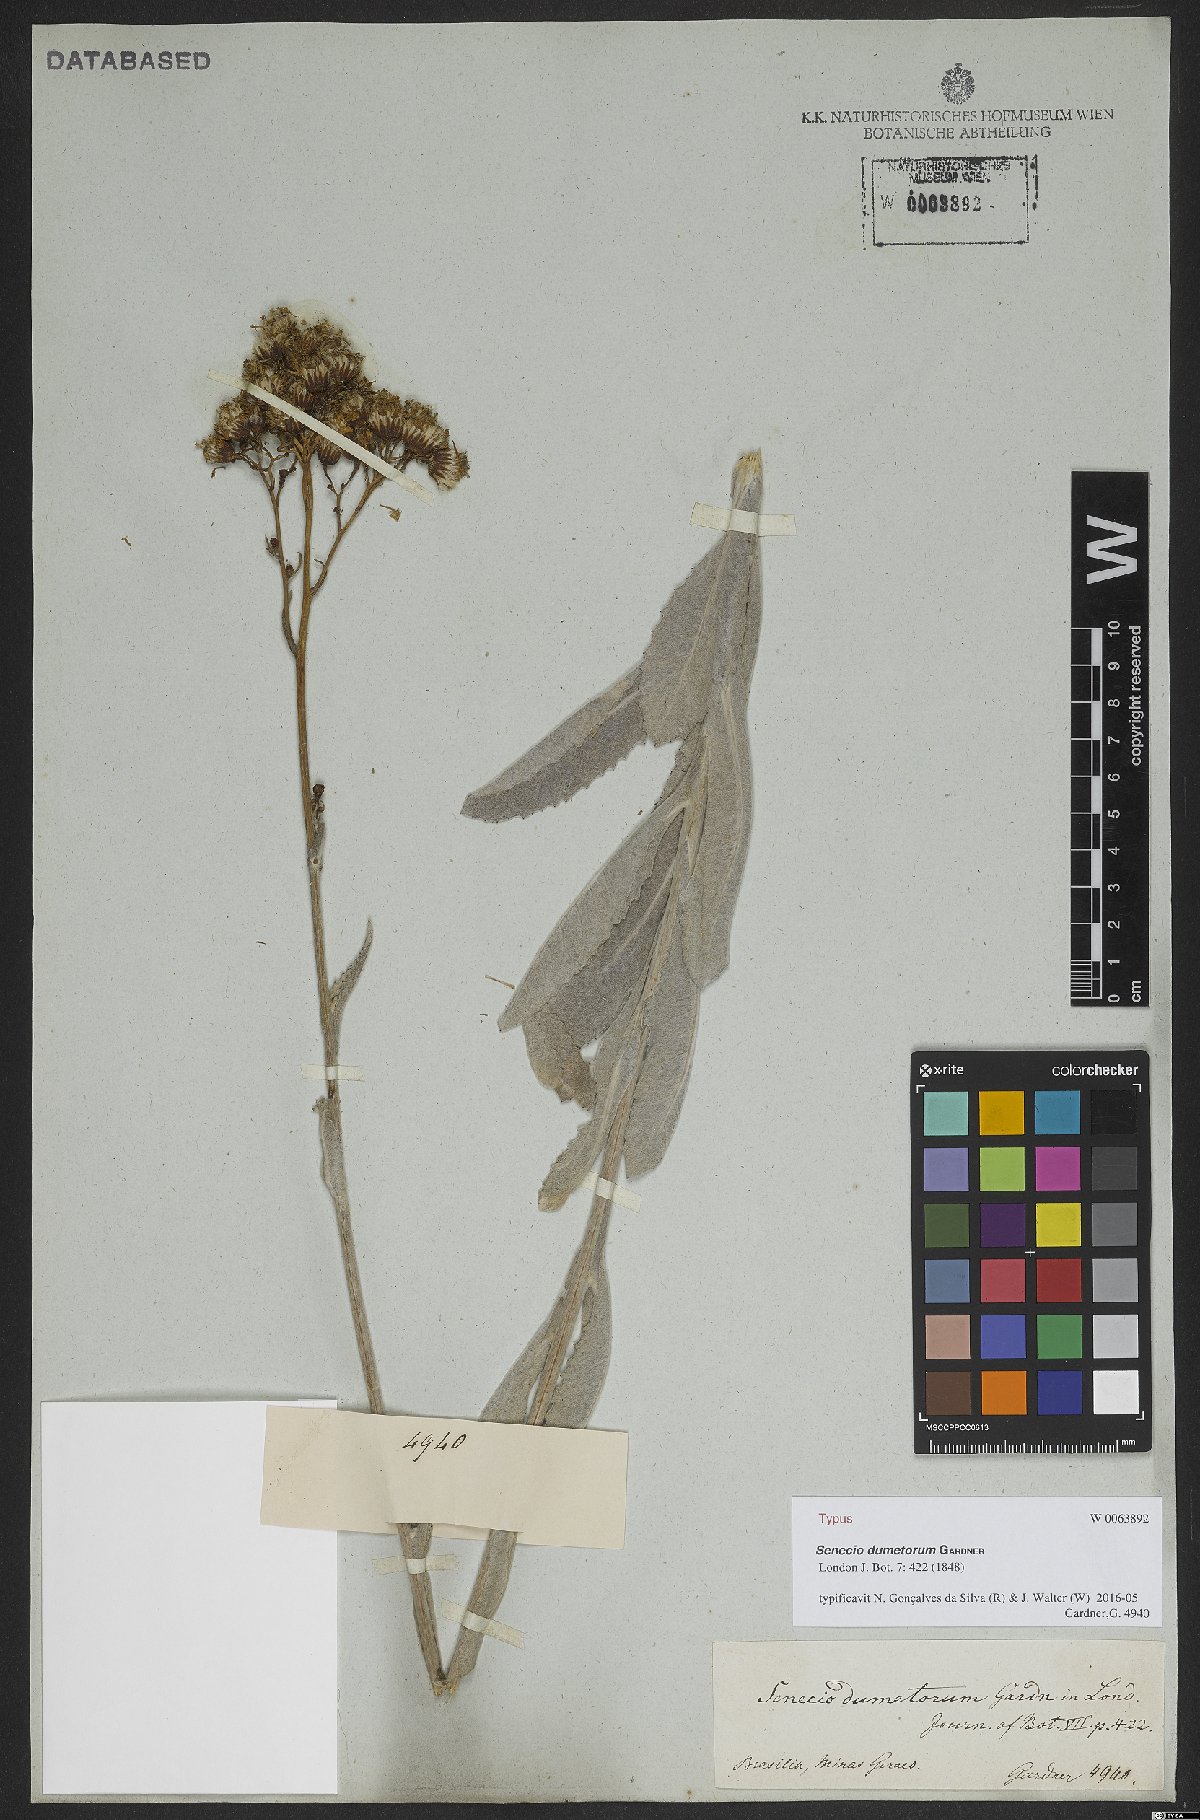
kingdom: Plantae
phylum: Tracheophyta
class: Magnoliopsida
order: Asterales
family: Asteraceae
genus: Senecio
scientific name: Senecio dumetorum
